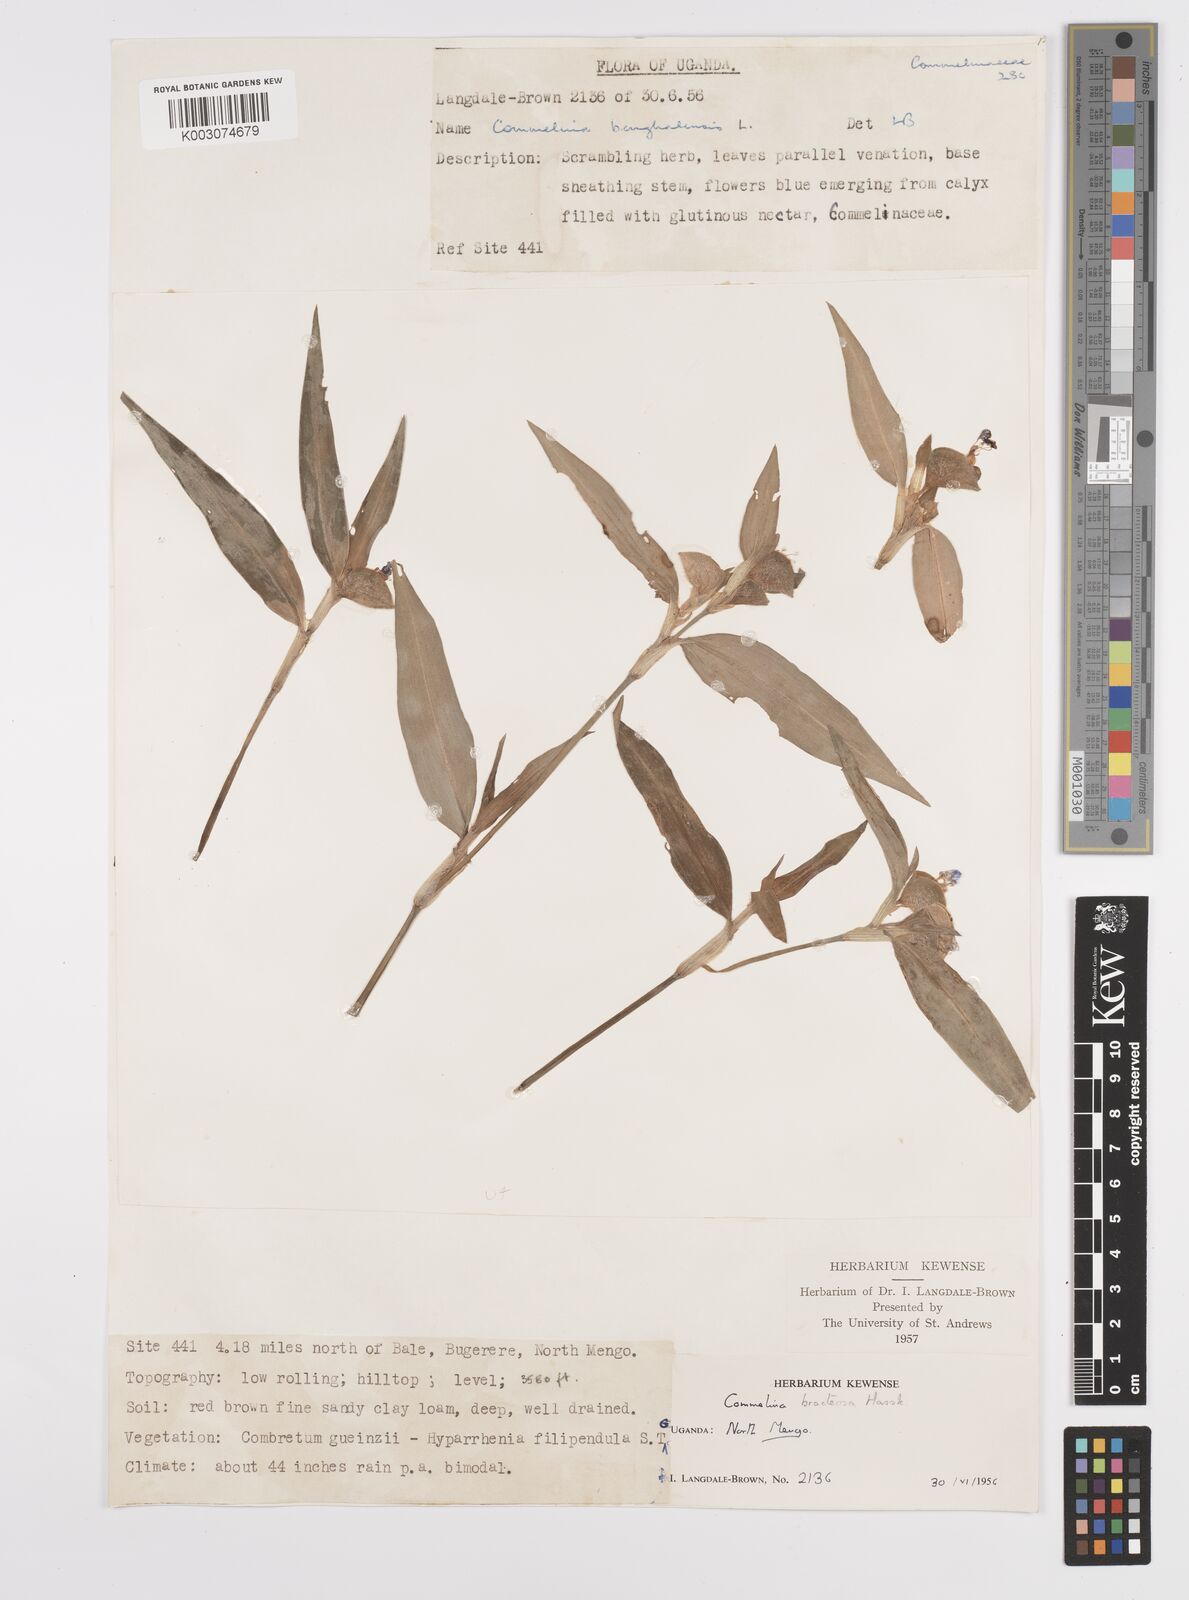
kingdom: Plantae
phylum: Tracheophyta
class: Liliopsida
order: Commelinales
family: Commelinaceae
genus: Commelina
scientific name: Commelina bracteosa
